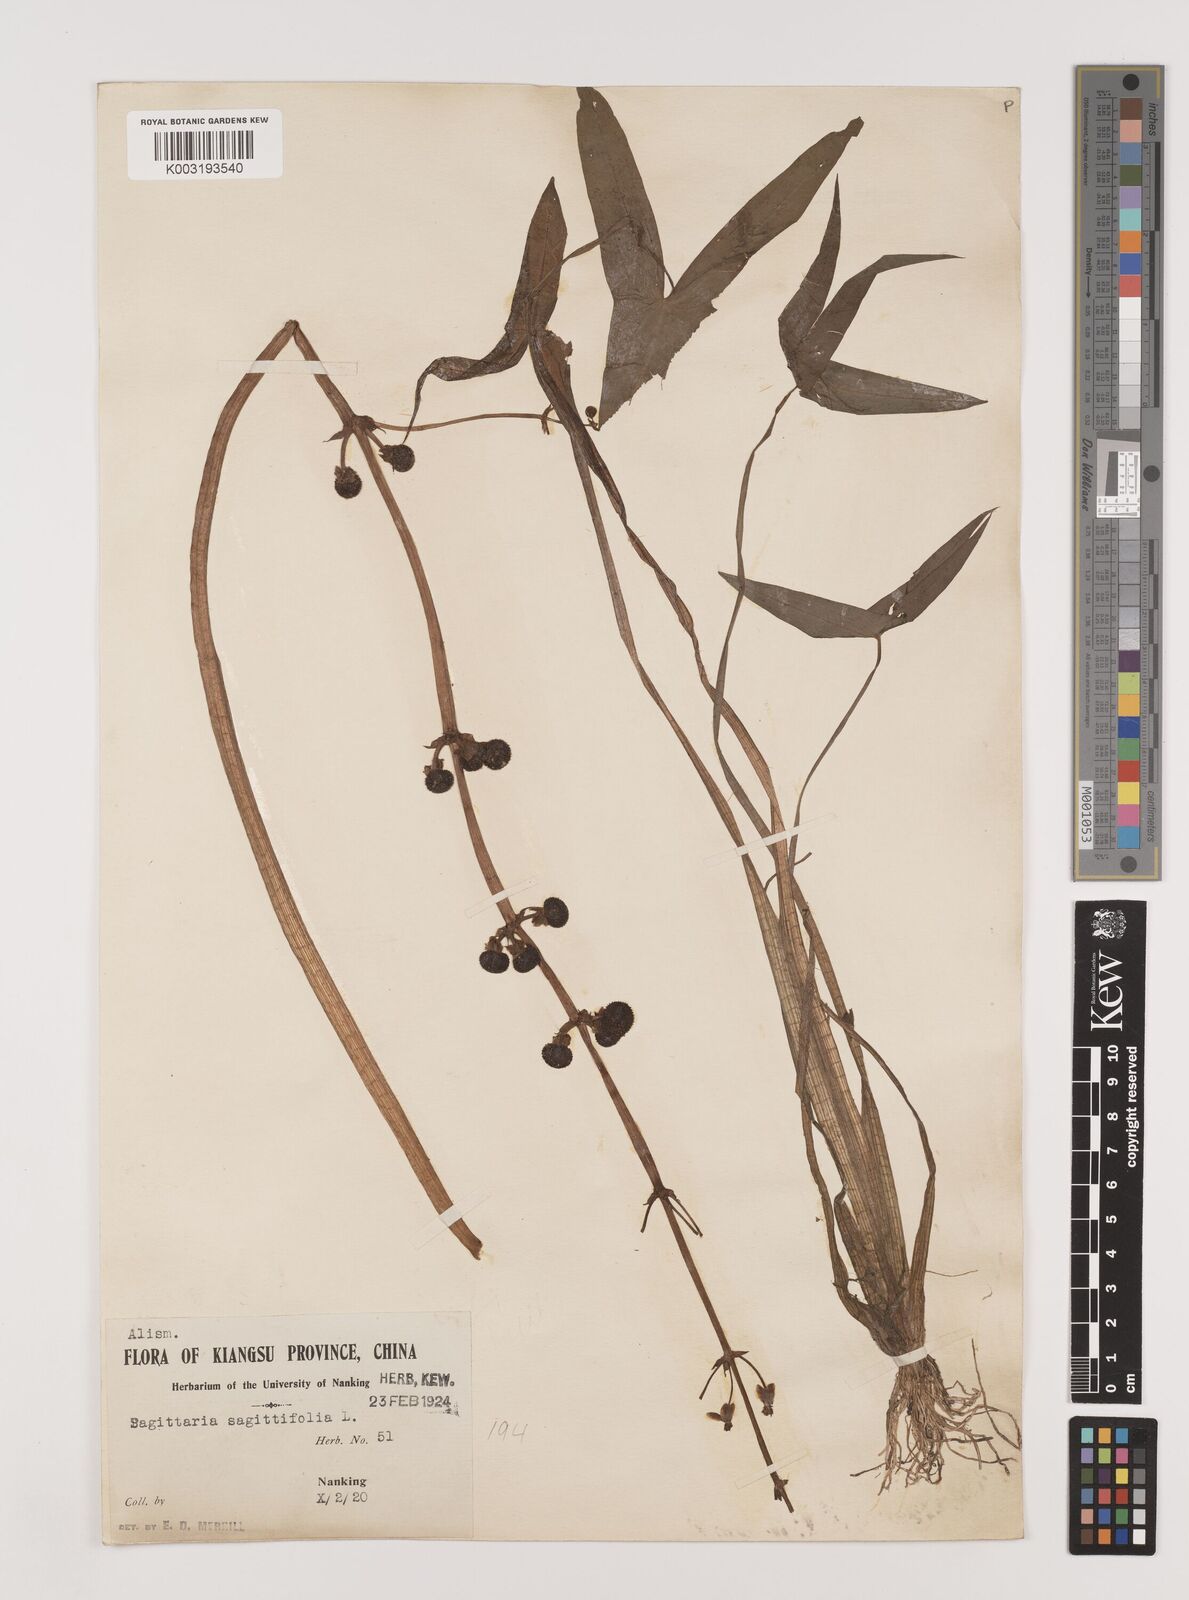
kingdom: Plantae
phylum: Tracheophyta
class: Liliopsida
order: Alismatales
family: Alismataceae
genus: Sagittaria
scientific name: Sagittaria sagittifolia
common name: Arrowhead
